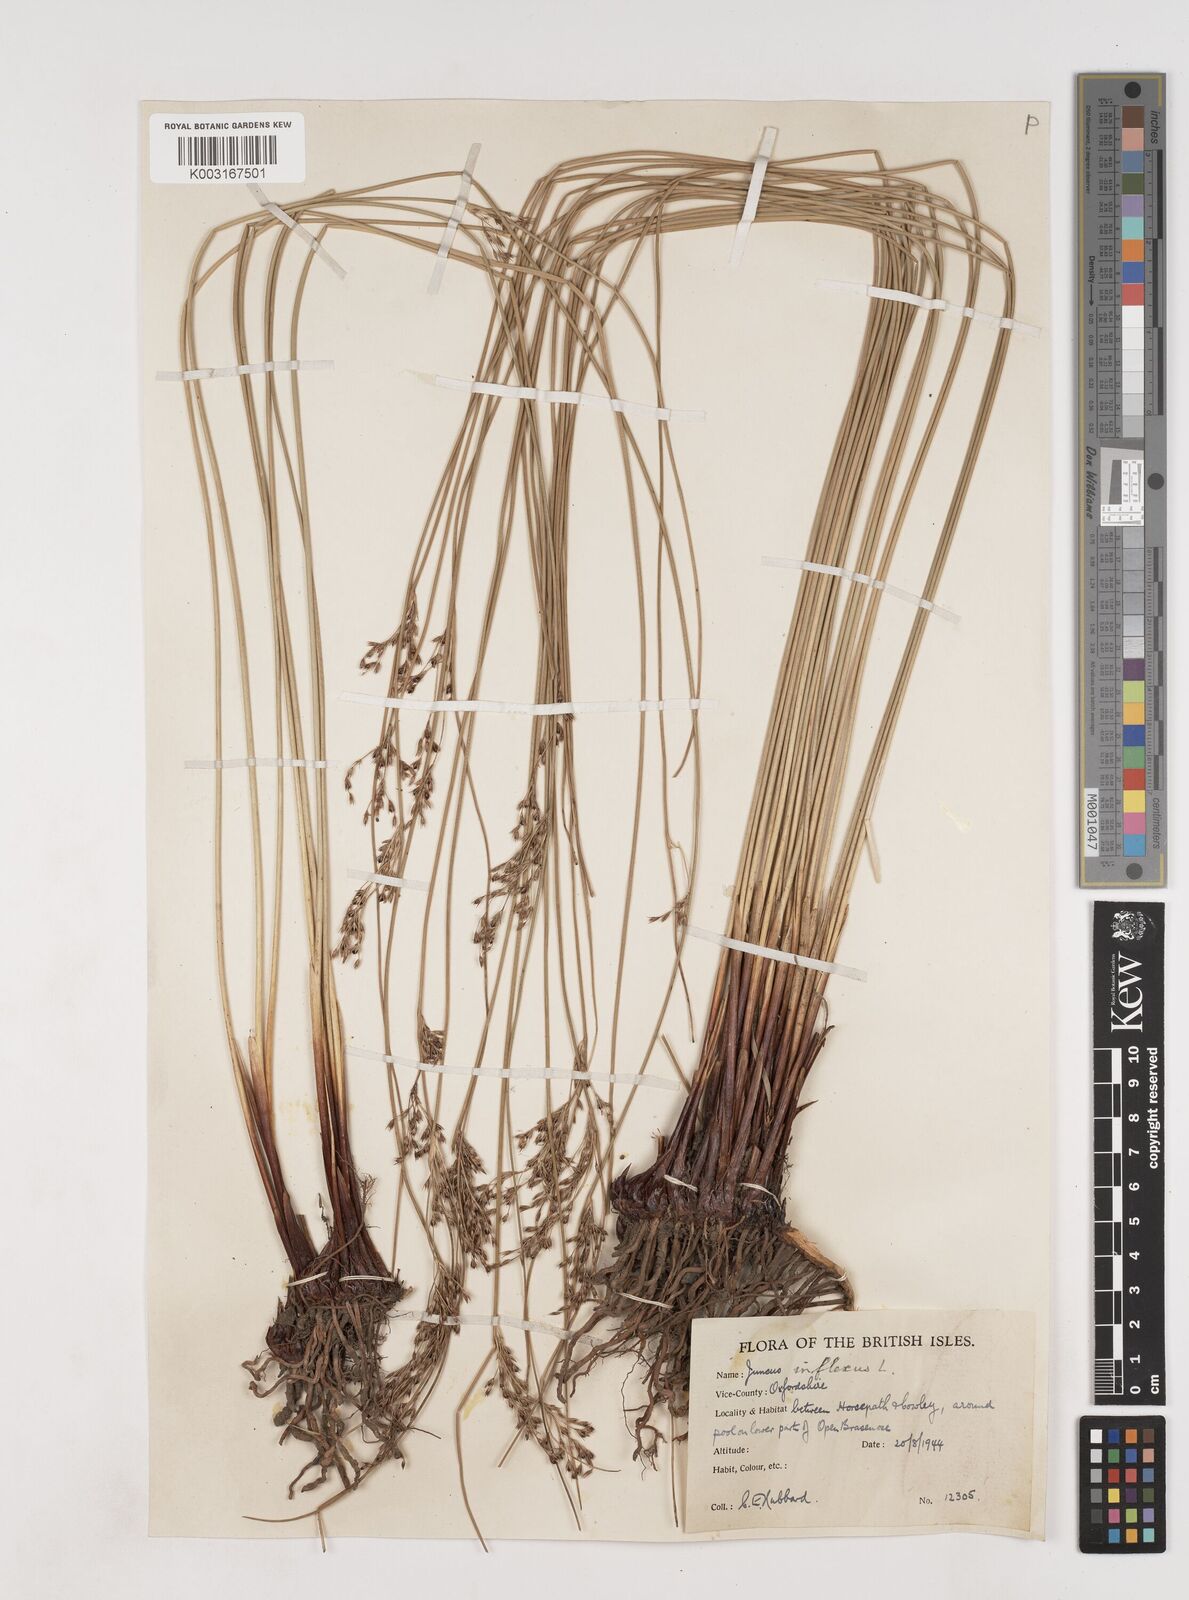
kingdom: Plantae
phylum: Tracheophyta
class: Liliopsida
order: Poales
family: Juncaceae
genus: Juncus
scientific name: Juncus inflexus
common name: Hard rush
